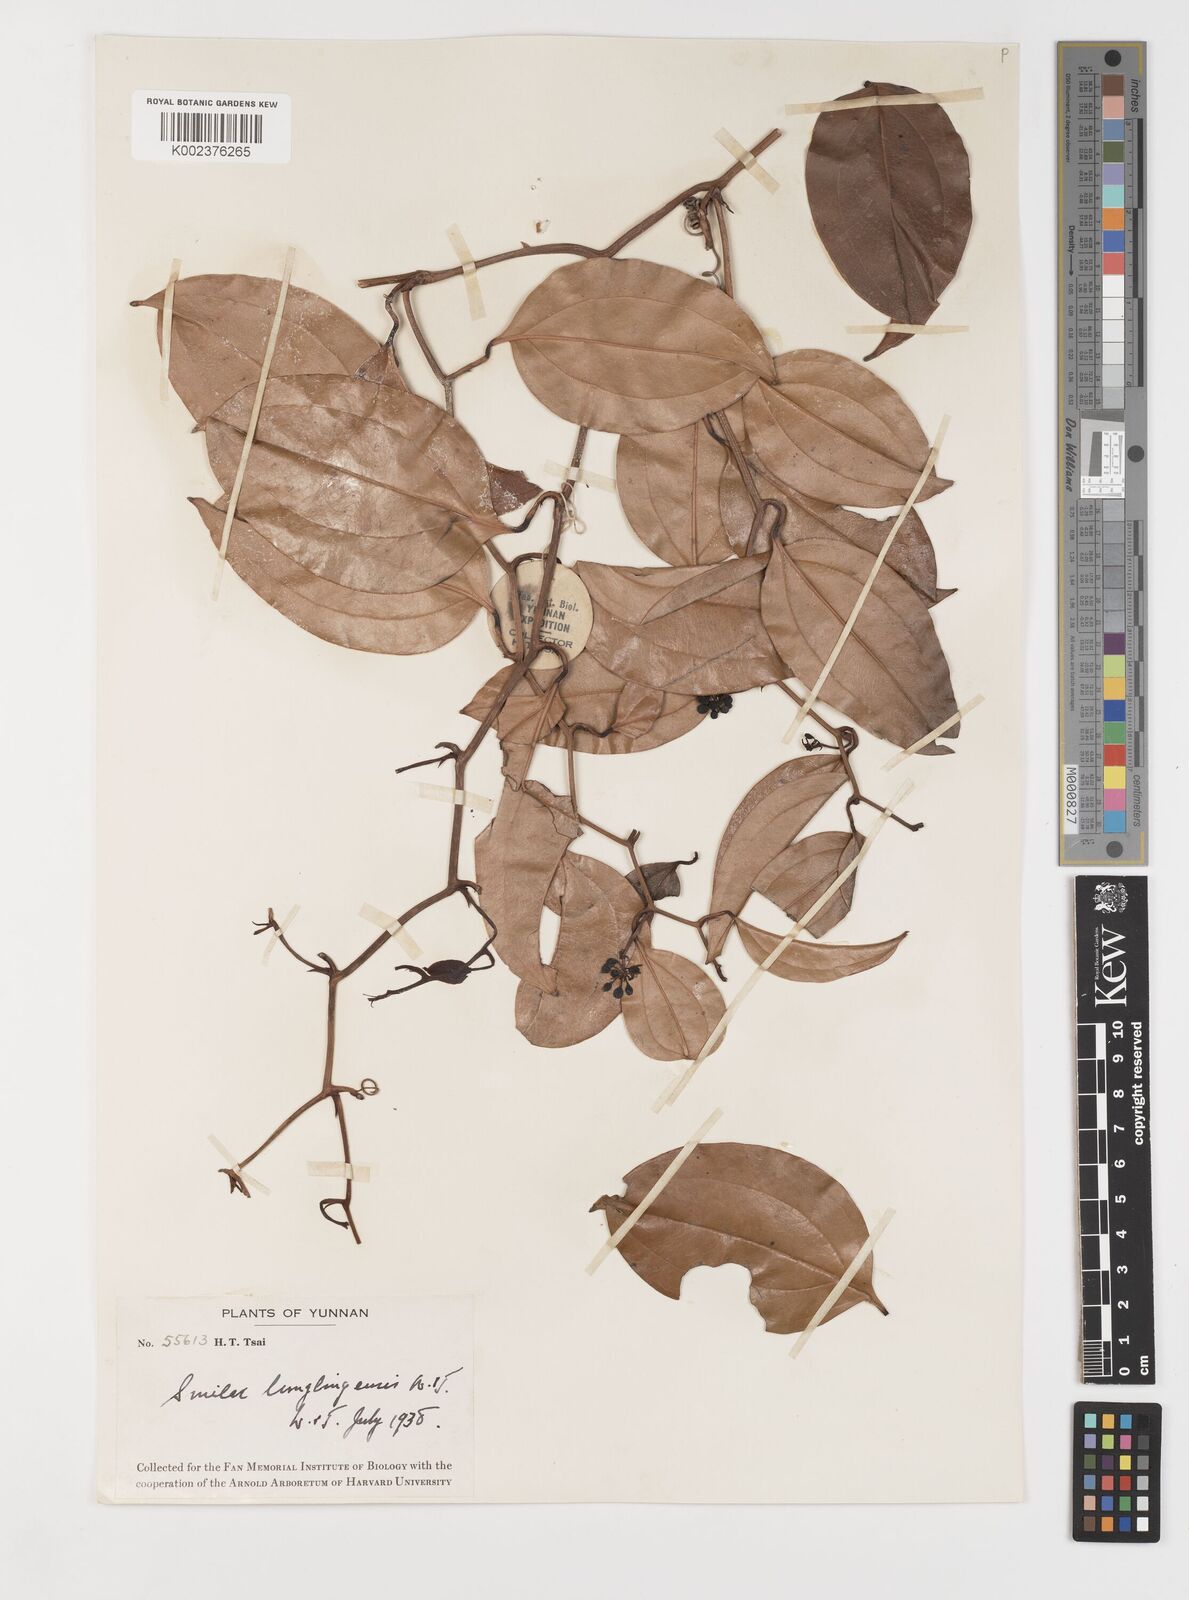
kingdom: Plantae
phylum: Tracheophyta
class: Liliopsida
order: Liliales
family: Smilacaceae
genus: Smilax
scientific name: Smilax lunglingensis
